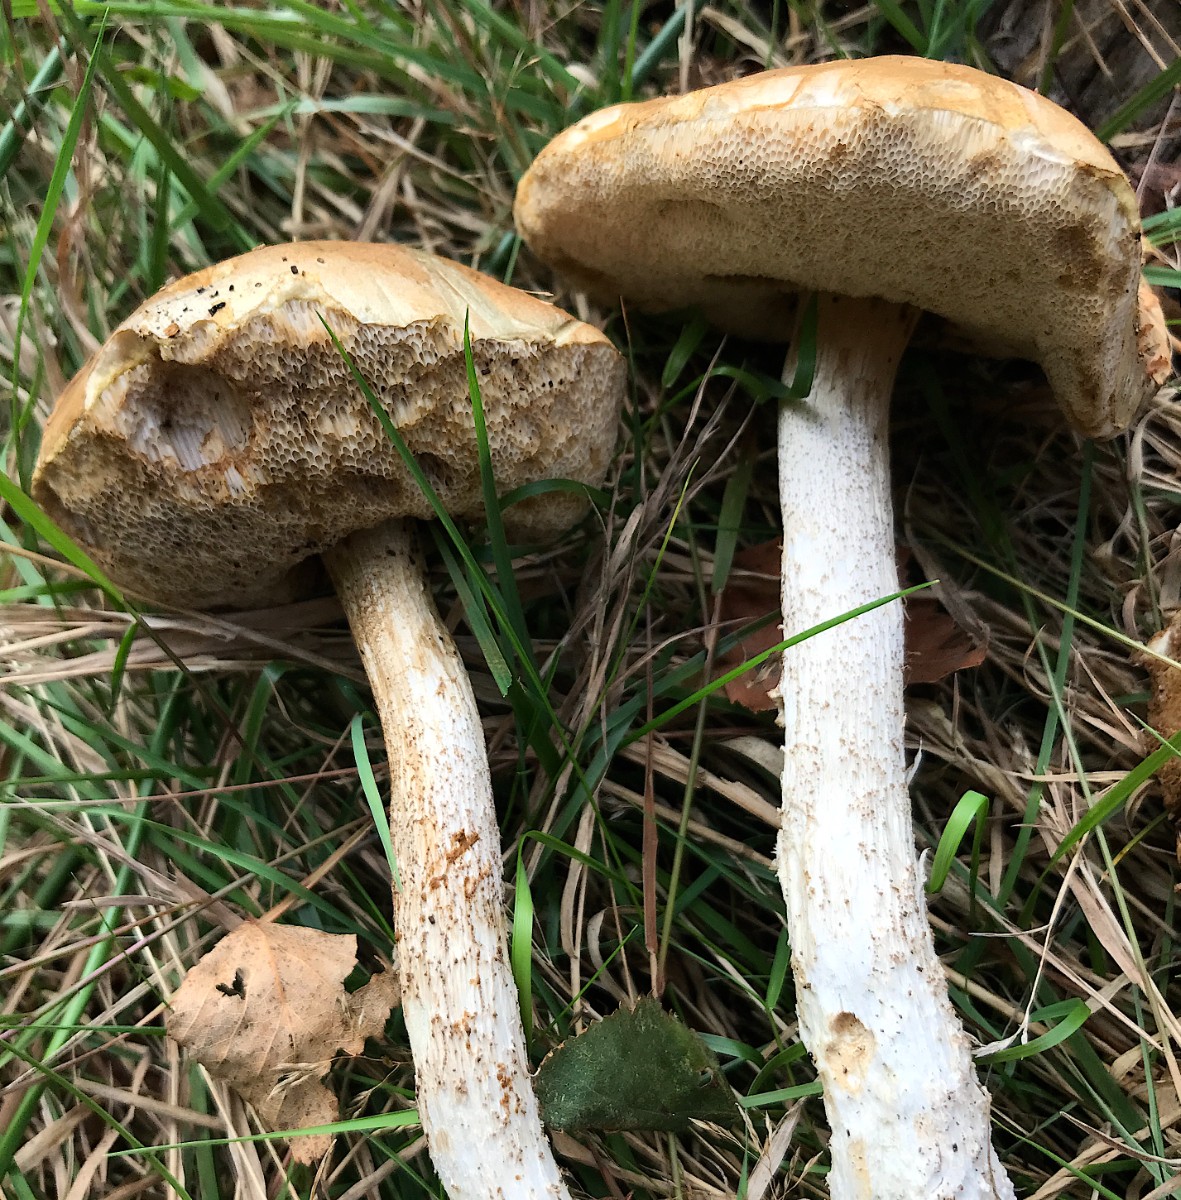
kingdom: Fungi
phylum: Basidiomycota
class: Agaricomycetes
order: Boletales
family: Boletaceae
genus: Leccinum
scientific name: Leccinum
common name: skælrørhat
